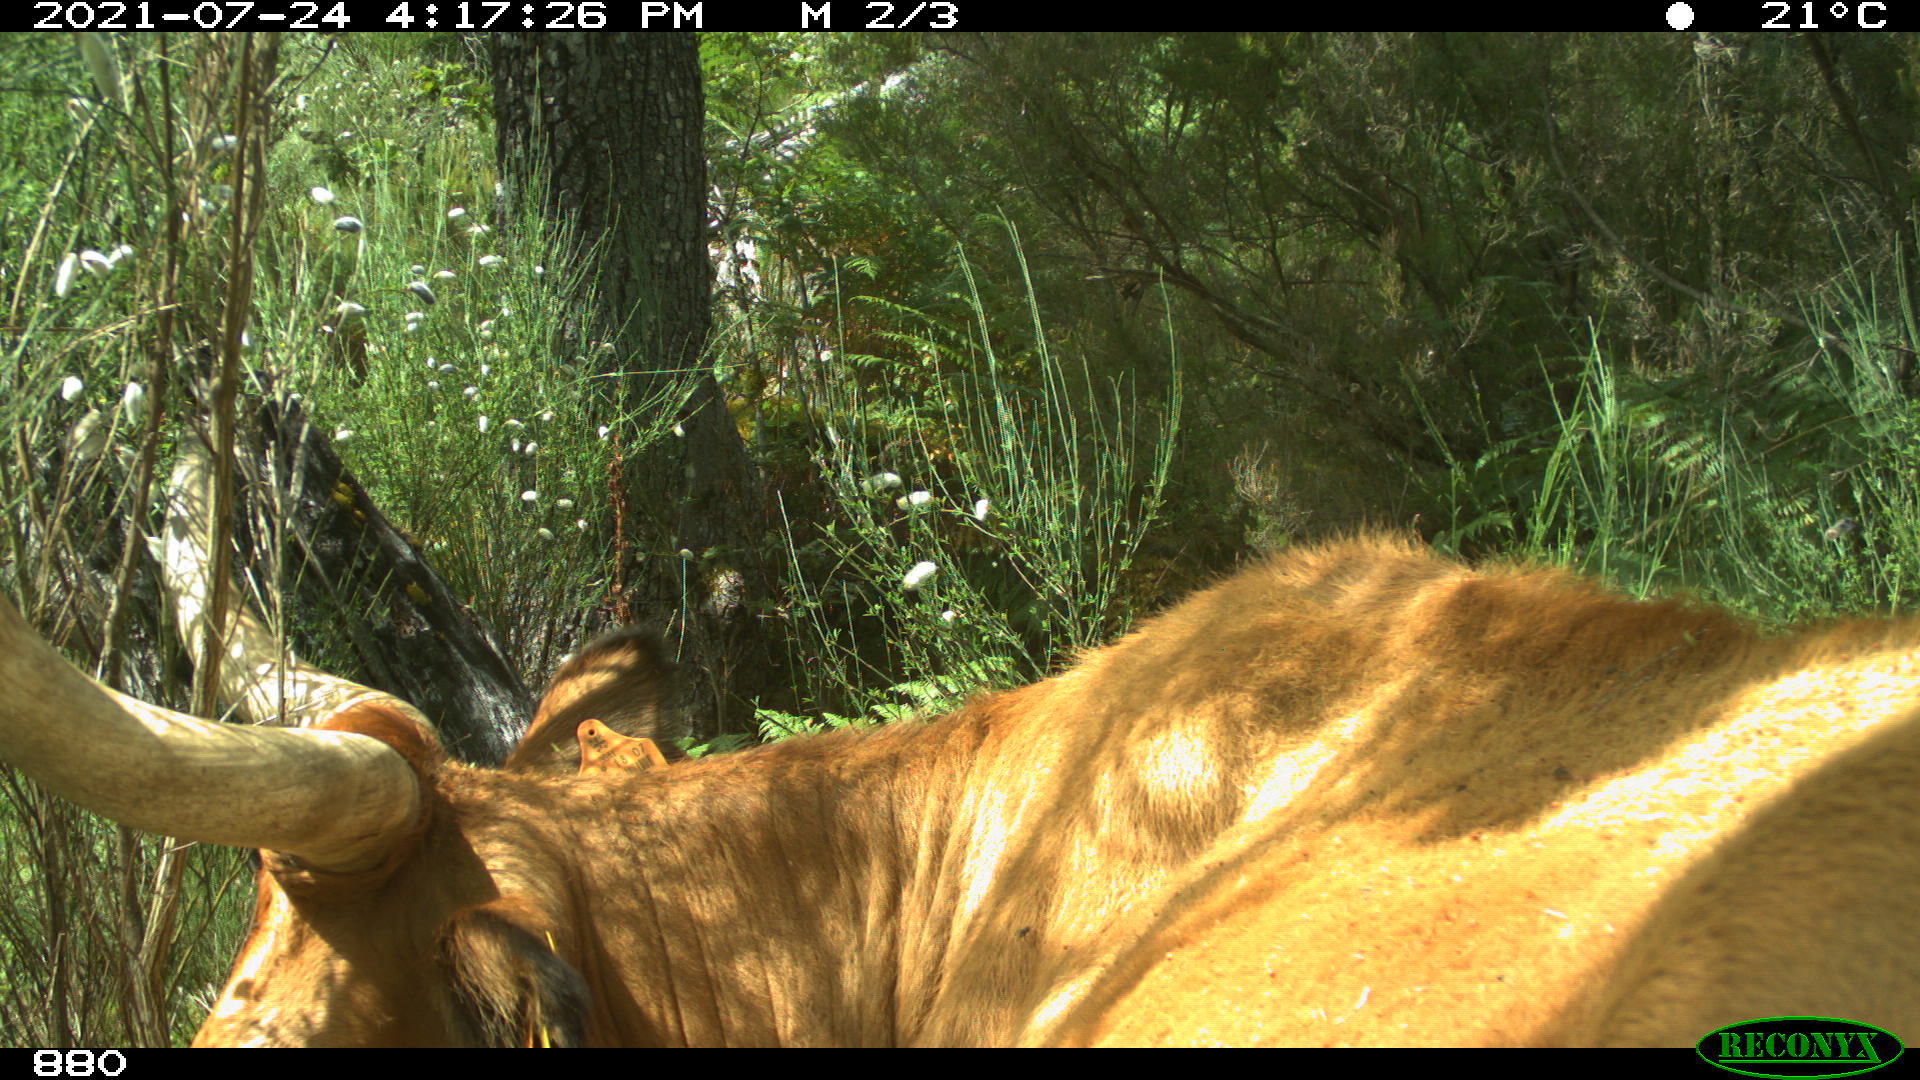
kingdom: Animalia
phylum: Chordata
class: Mammalia
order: Artiodactyla
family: Bovidae
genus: Bos
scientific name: Bos taurus
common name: Domesticated cattle
